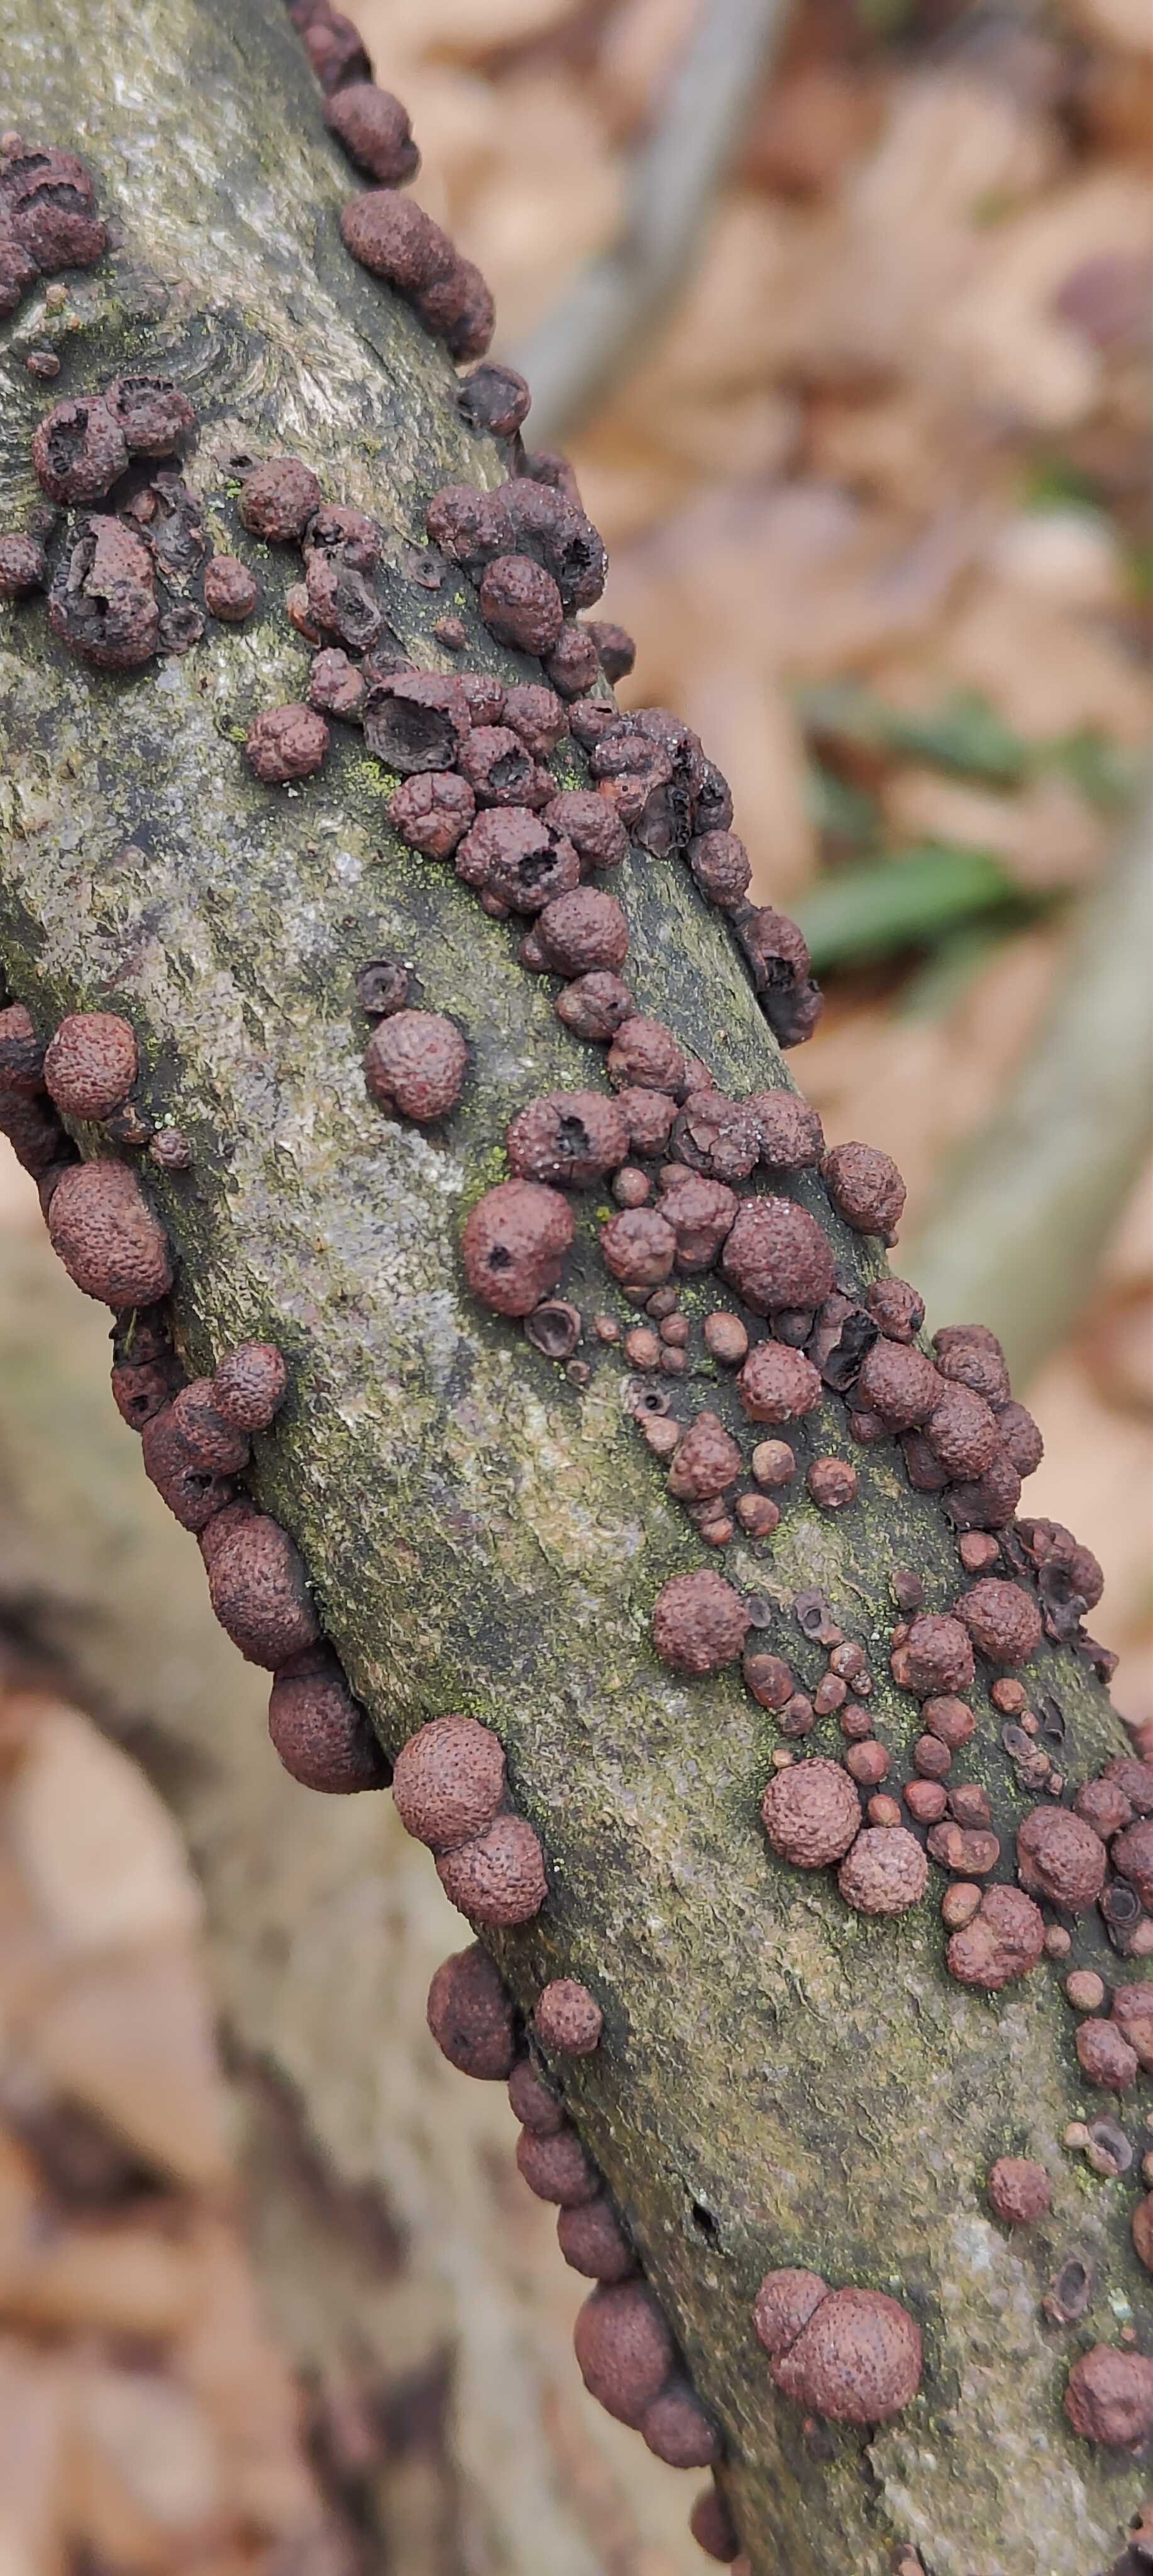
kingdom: Fungi
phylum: Ascomycota
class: Sordariomycetes
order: Xylariales
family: Hypoxylaceae
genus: Hypoxylon
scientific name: Hypoxylon fragiforme
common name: kuljordbær
